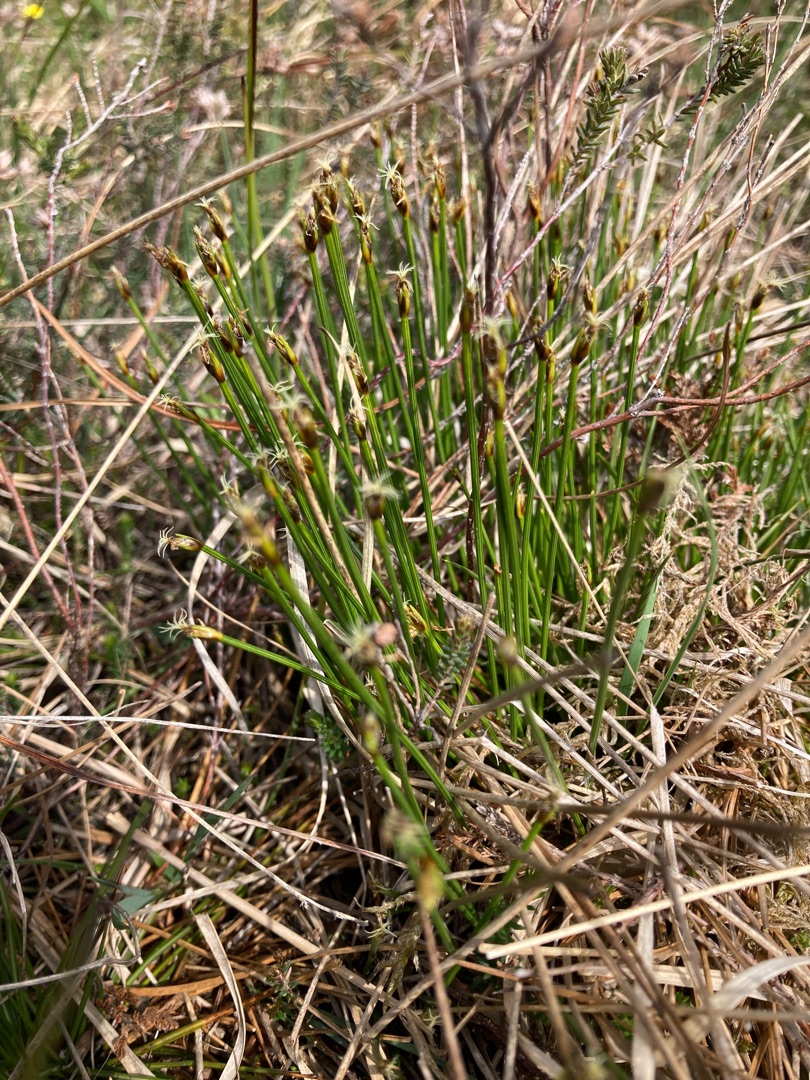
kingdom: Plantae
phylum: Tracheophyta
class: Liliopsida
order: Poales
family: Cyperaceae
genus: Trichophorum
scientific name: Trichophorum cespitosum
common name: Tuekogleaks
